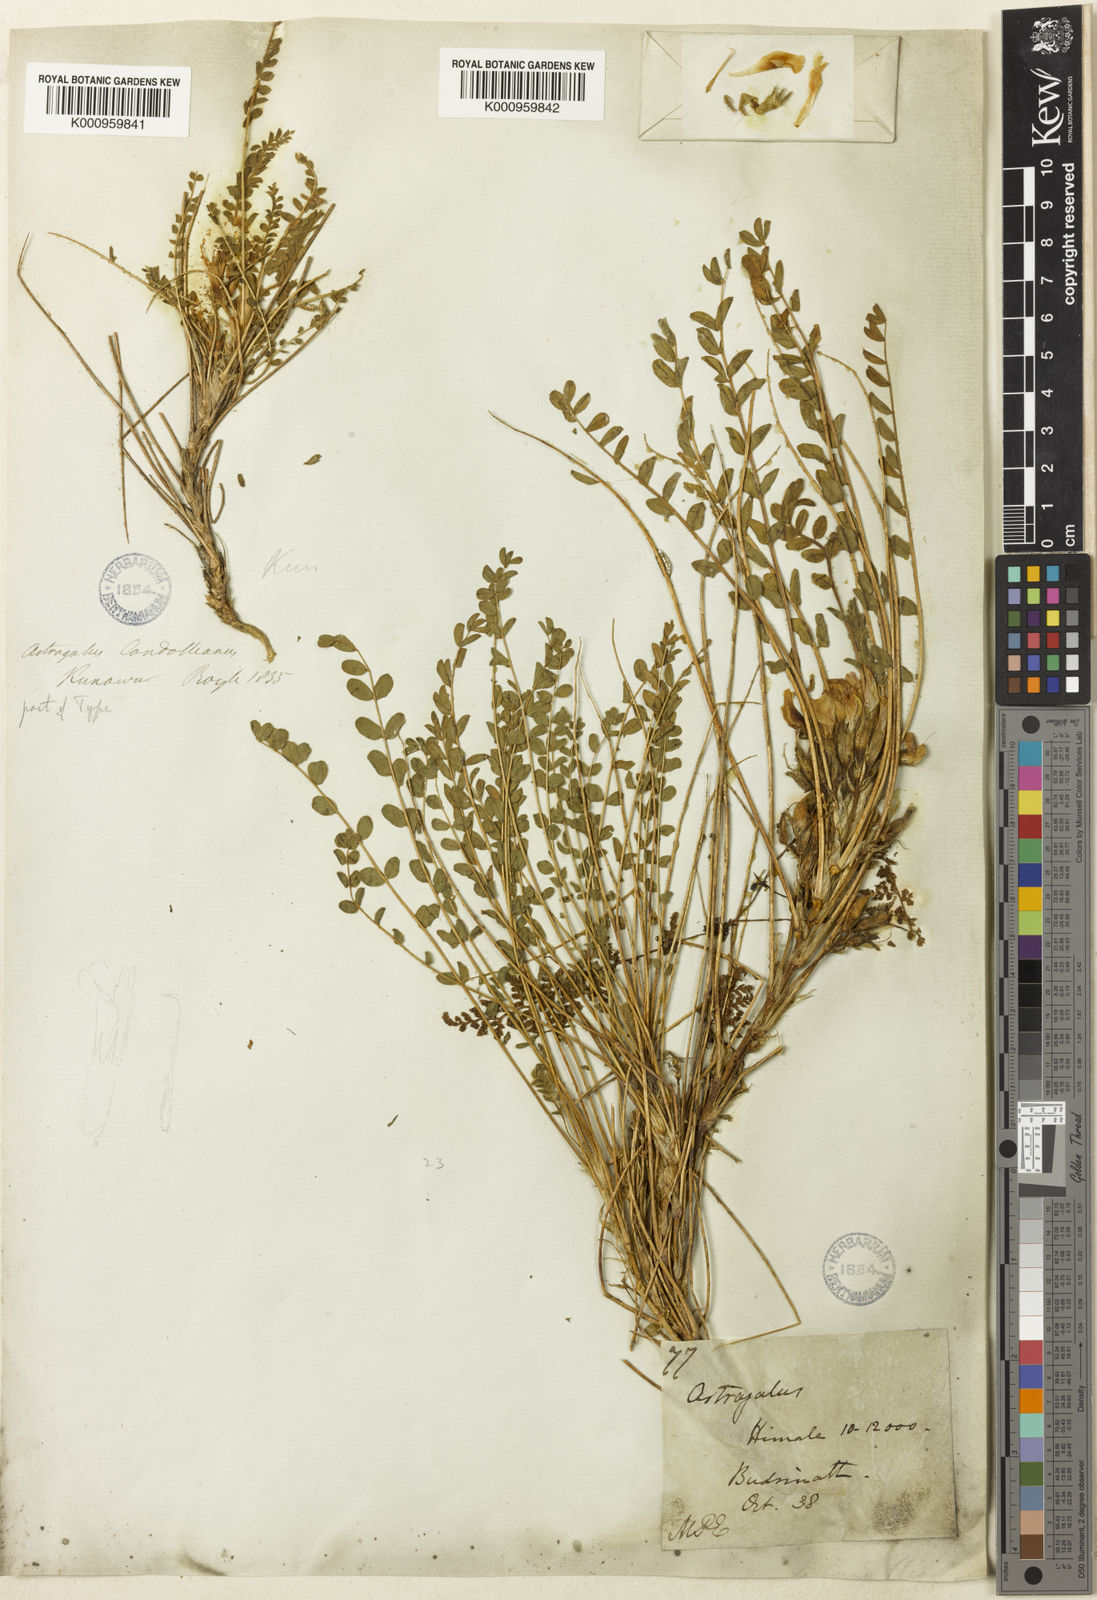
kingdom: Plantae
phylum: Tracheophyta
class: Magnoliopsida
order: Fabales
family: Fabaceae
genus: Astragalus
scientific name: Astragalus rhizanthus
